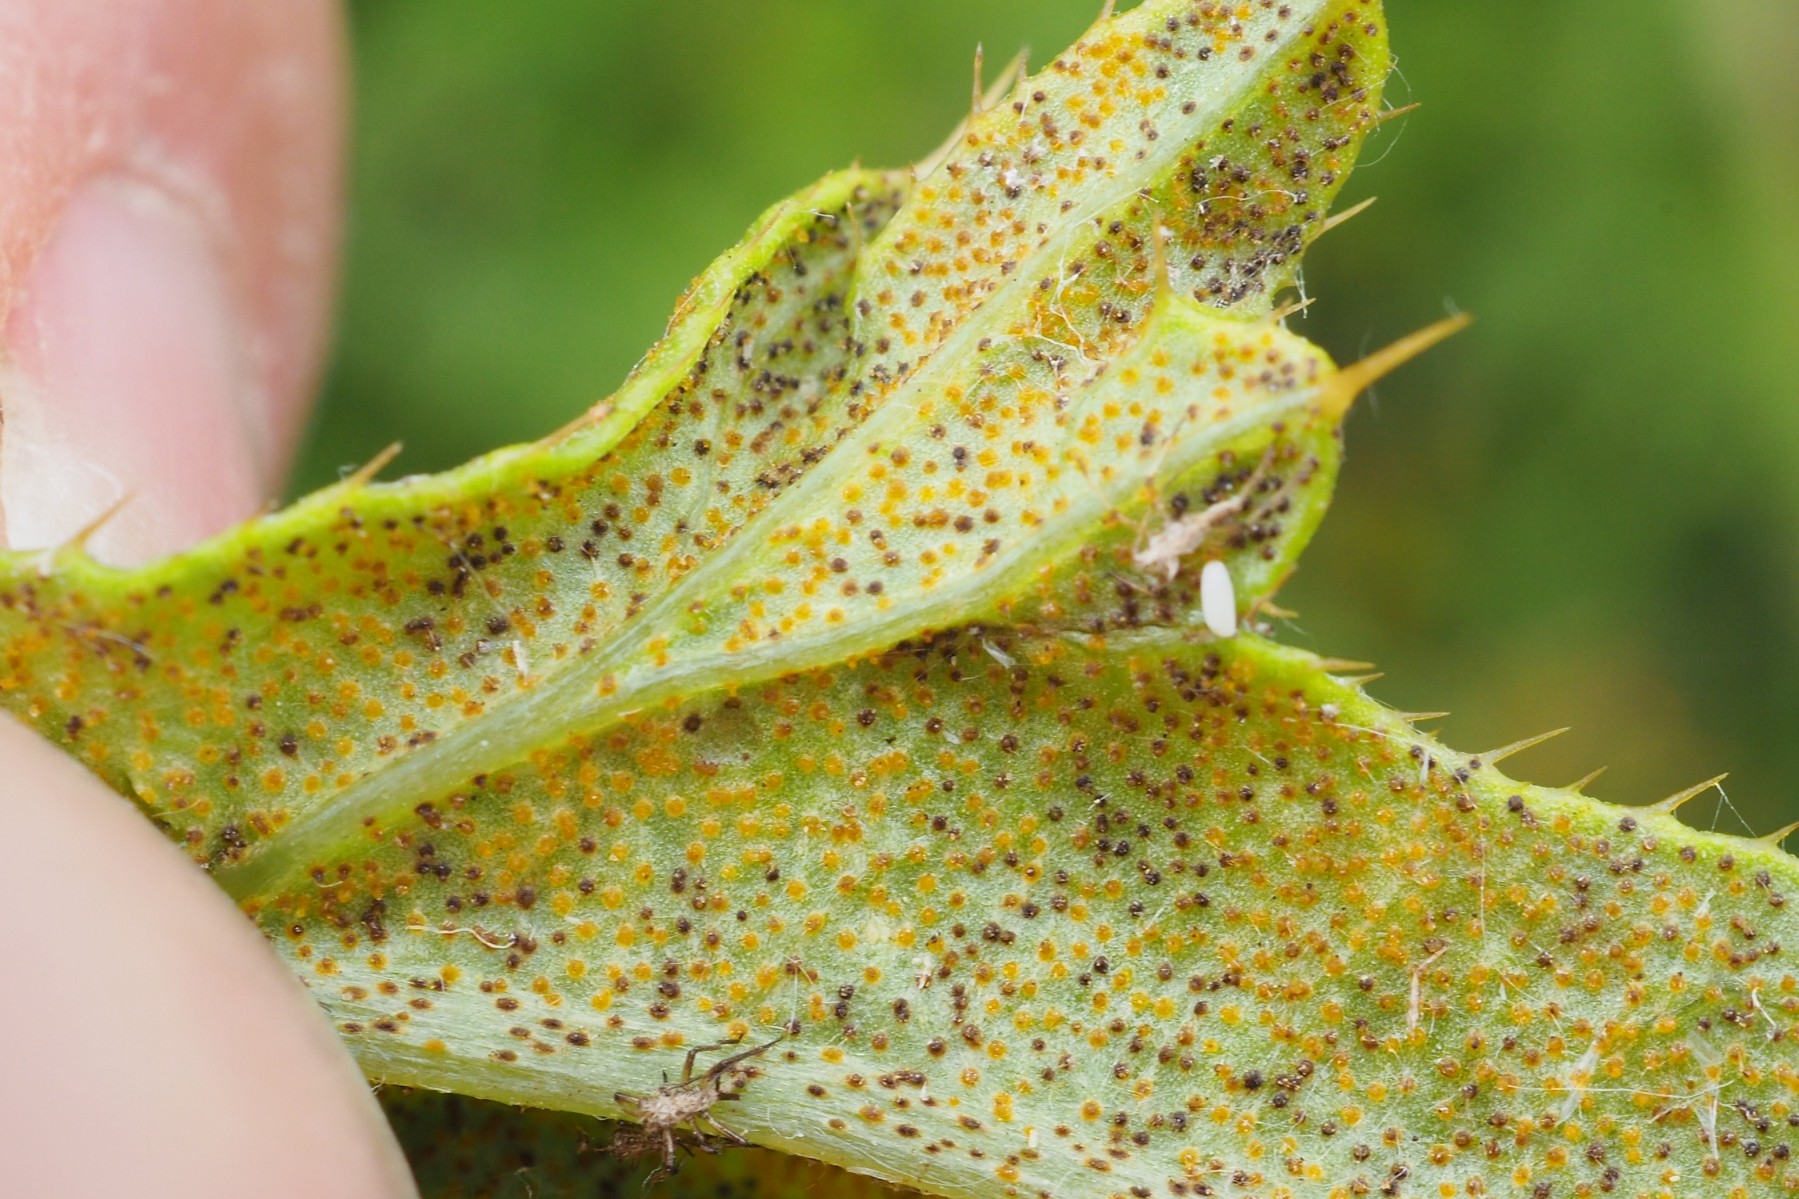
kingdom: Fungi
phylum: Basidiomycota
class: Pucciniomycetes
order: Pucciniales
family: Pucciniaceae
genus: Puccinia
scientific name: Puccinia suaveolens
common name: tidsel-tvecellerust
